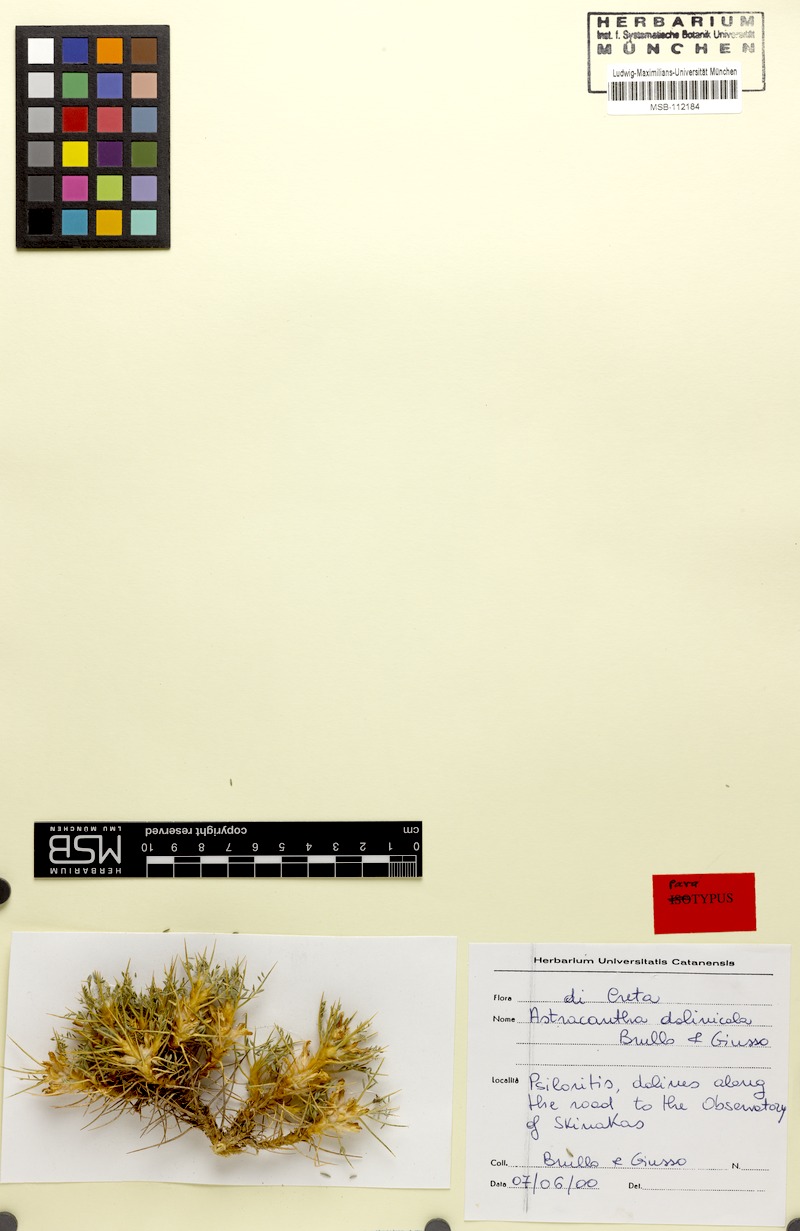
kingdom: Plantae
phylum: Tracheophyta
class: Magnoliopsida
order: Fabales
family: Fabaceae
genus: Astragalus
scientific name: Astragalus dolinicola
